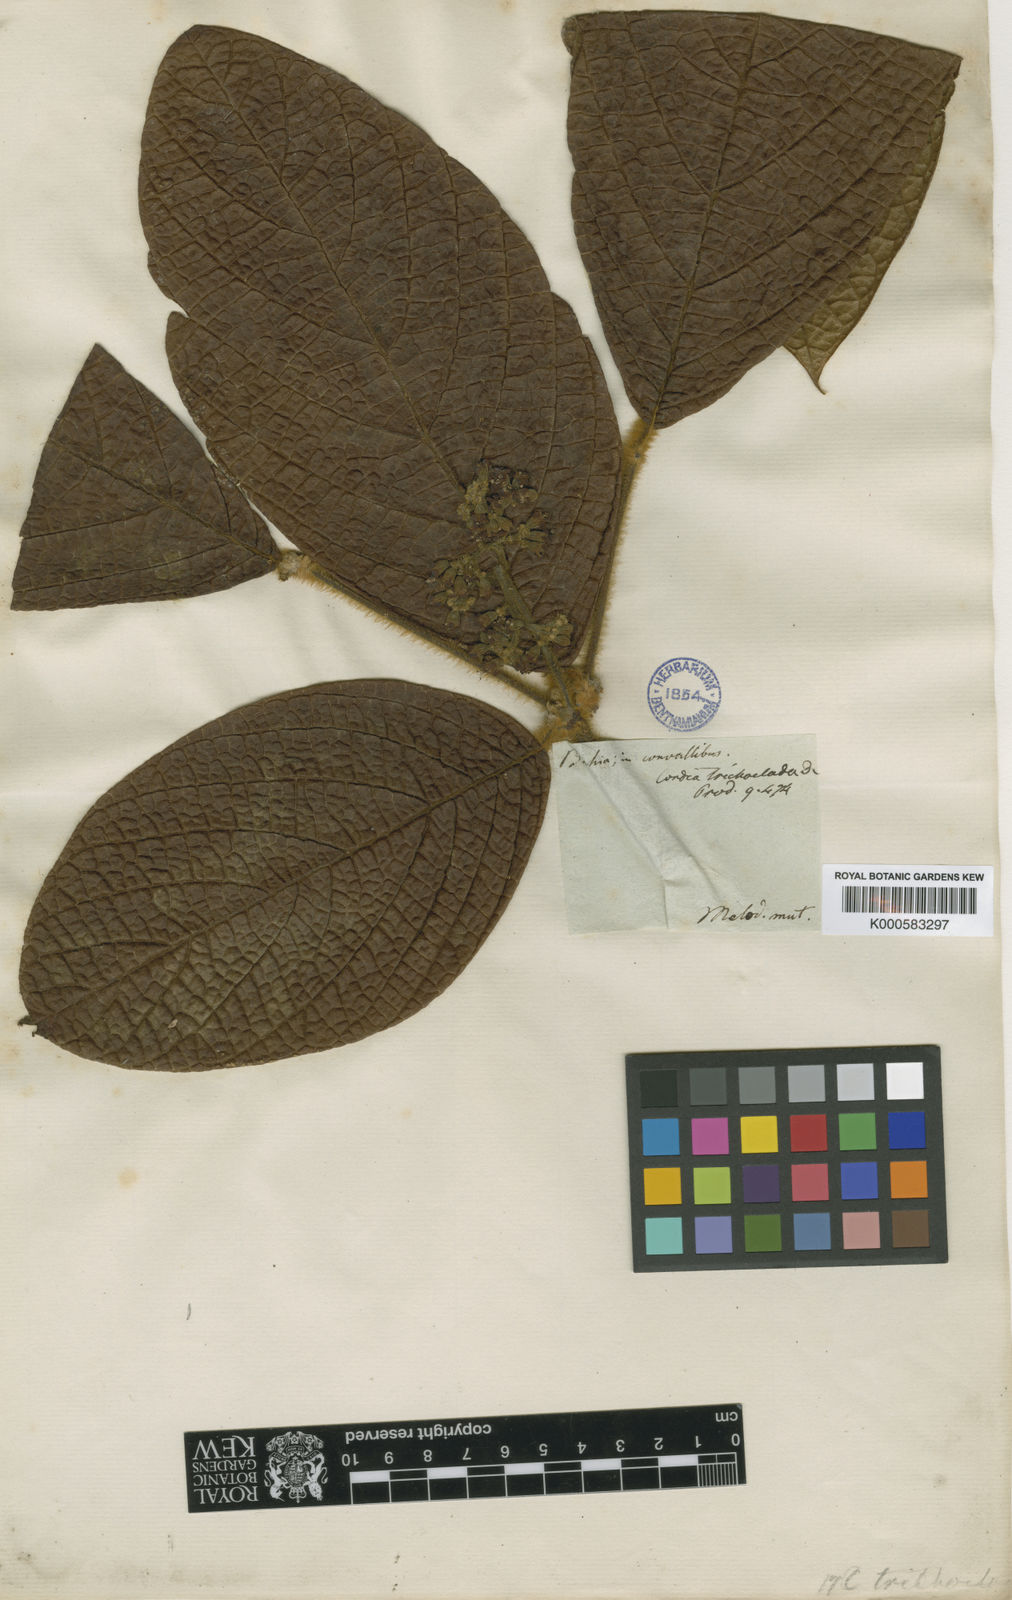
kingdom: Plantae
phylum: Tracheophyta
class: Magnoliopsida
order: Boraginales
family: Cordiaceae
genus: Cordia
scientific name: Cordia trichoclada
